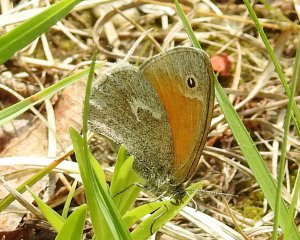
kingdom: Animalia
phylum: Arthropoda
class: Insecta
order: Lepidoptera
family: Nymphalidae
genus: Coenonympha
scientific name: Coenonympha tullia
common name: Large Heath
